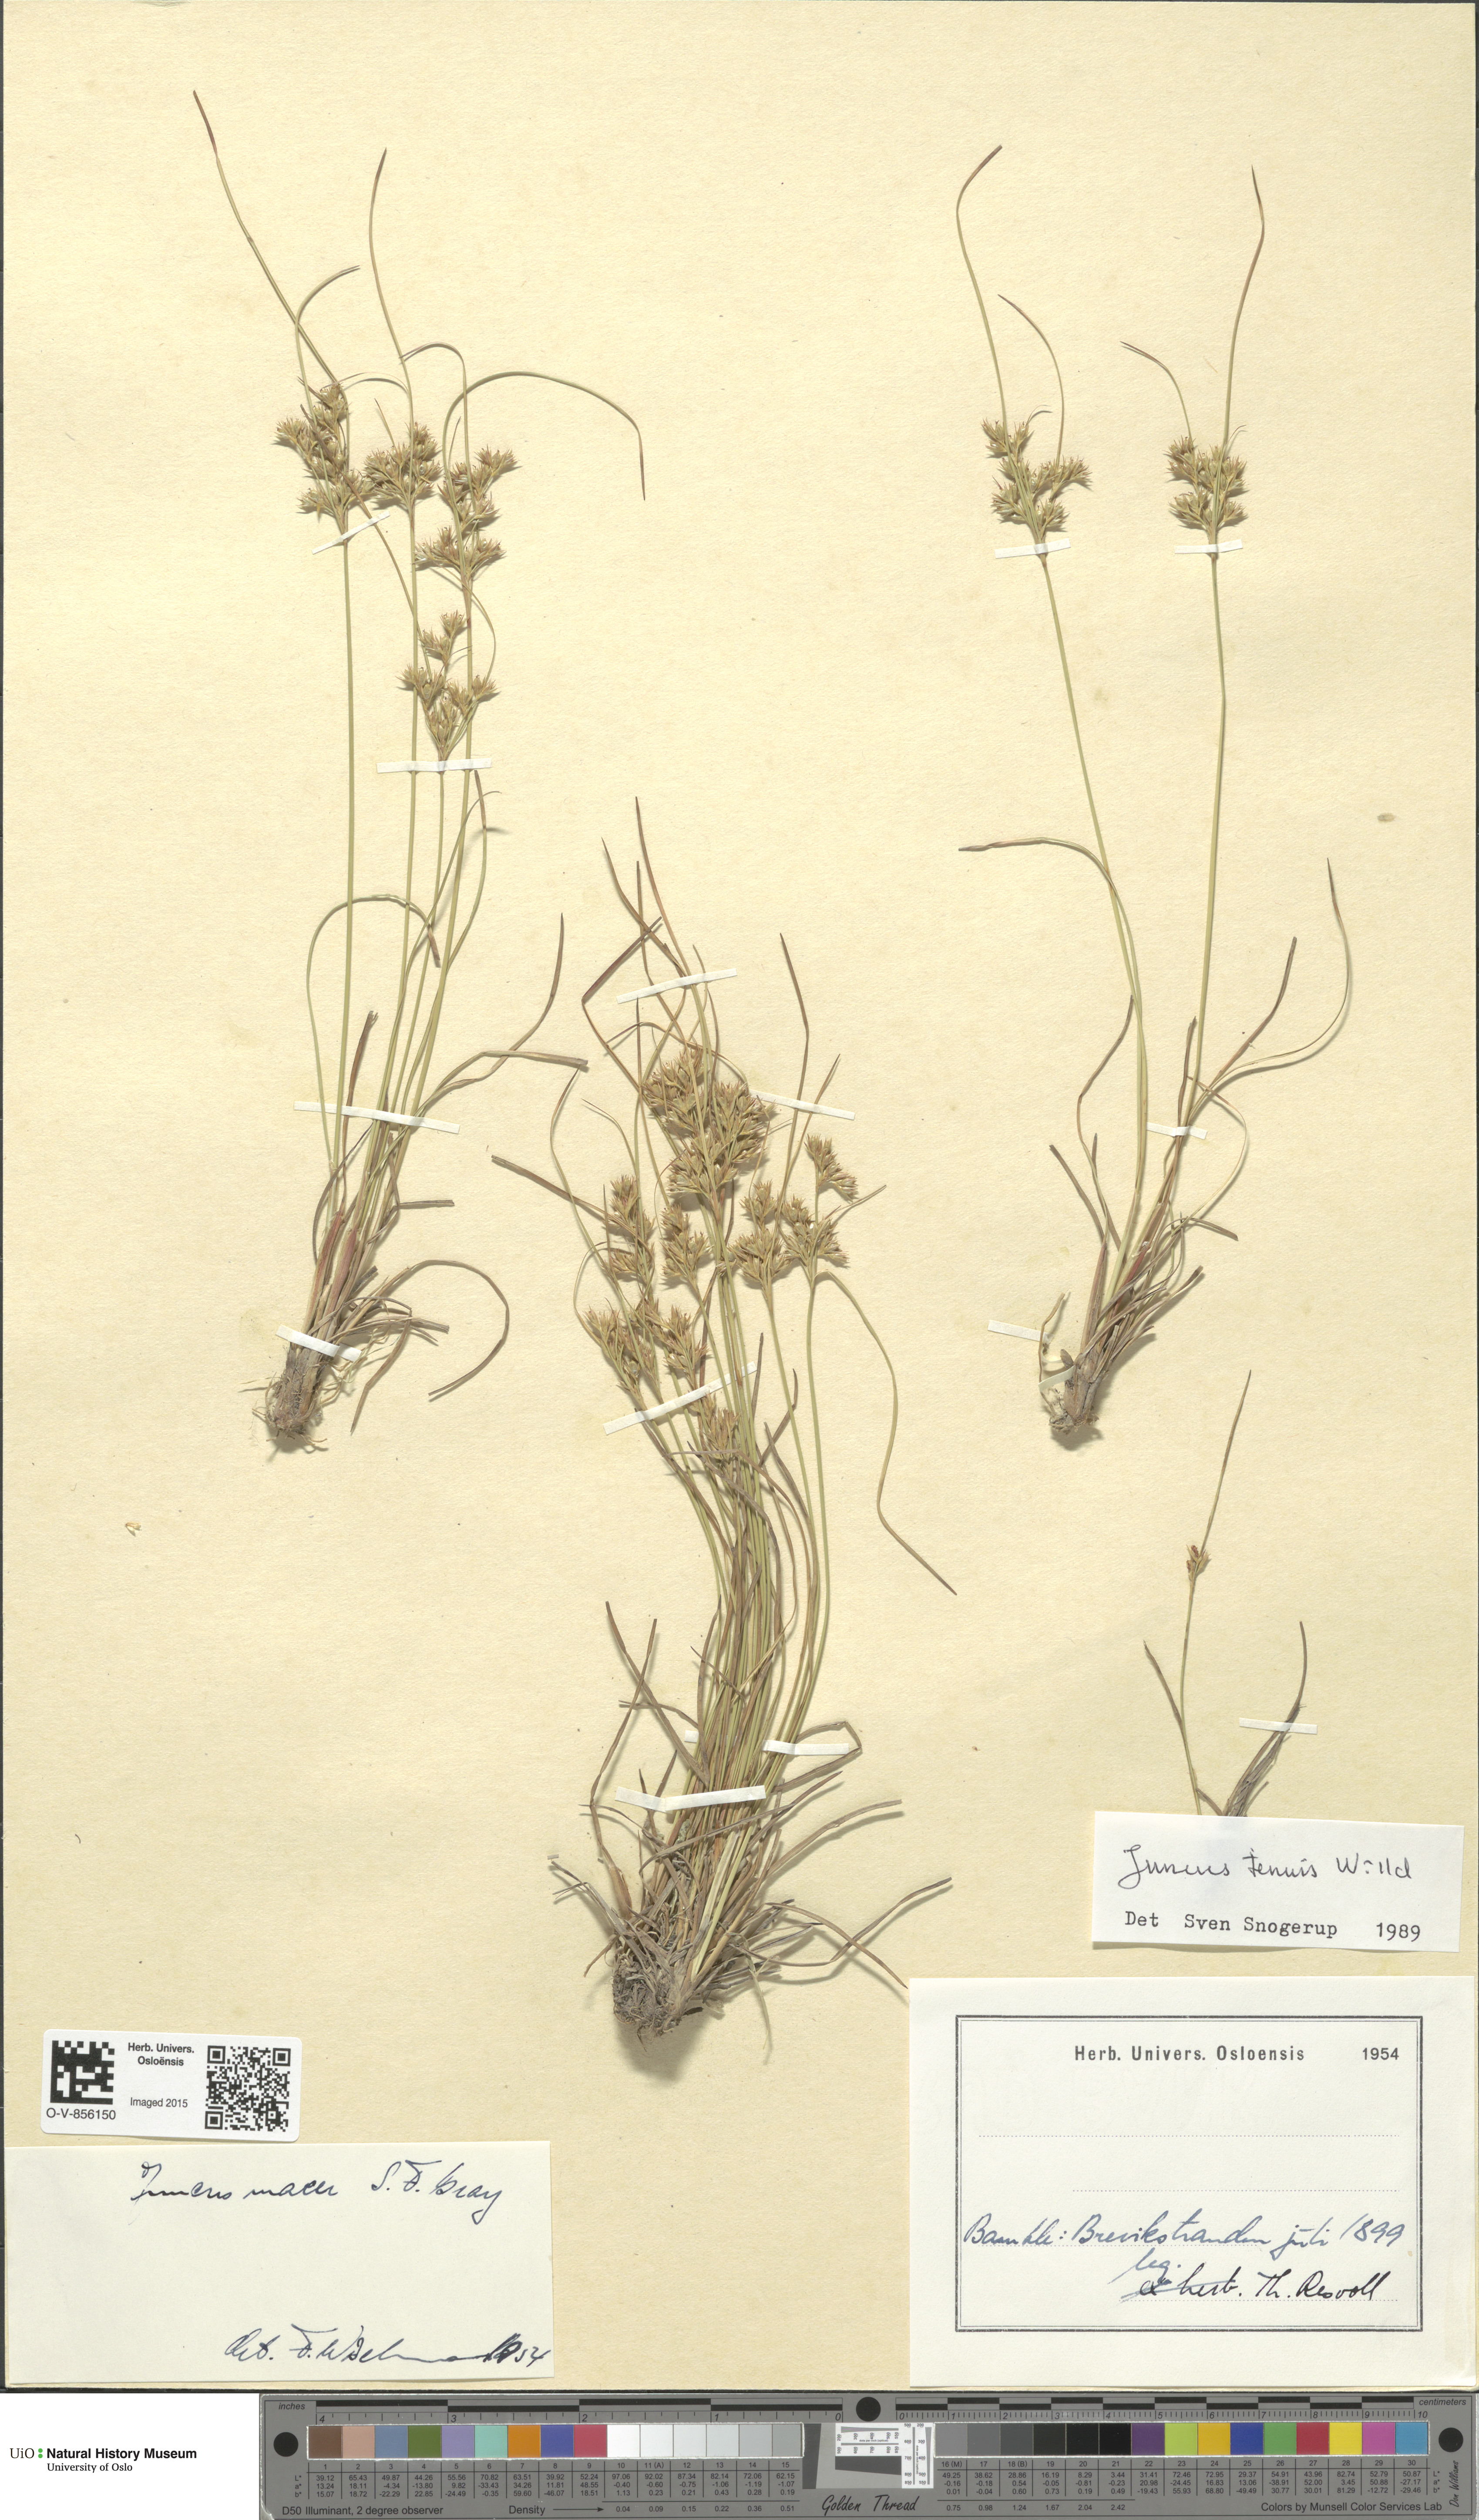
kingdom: Plantae
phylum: Tracheophyta
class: Liliopsida
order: Poales
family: Juncaceae
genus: Juncus
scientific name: Juncus tenuis
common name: Slender rush
